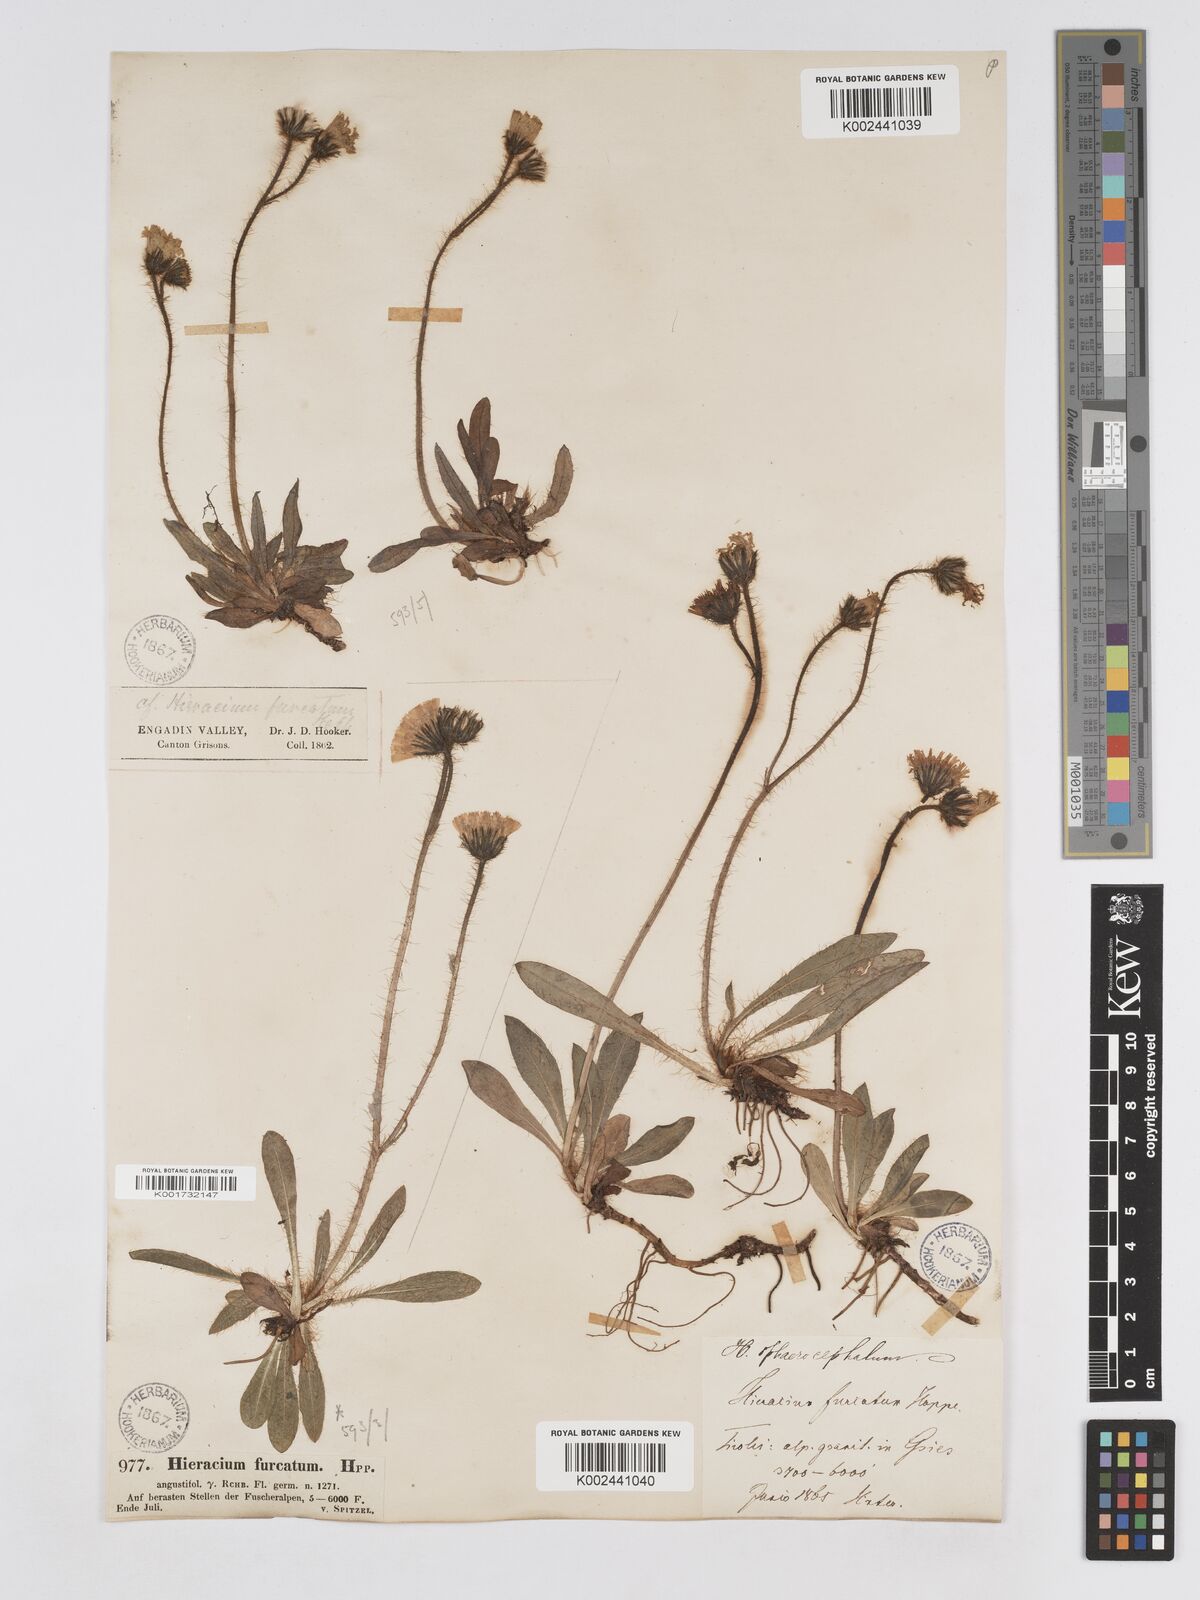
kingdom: Plantae
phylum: Tracheophyta
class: Magnoliopsida
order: Asterales
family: Asteraceae
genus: Pilosella
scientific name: Pilosella sphaerocephala
